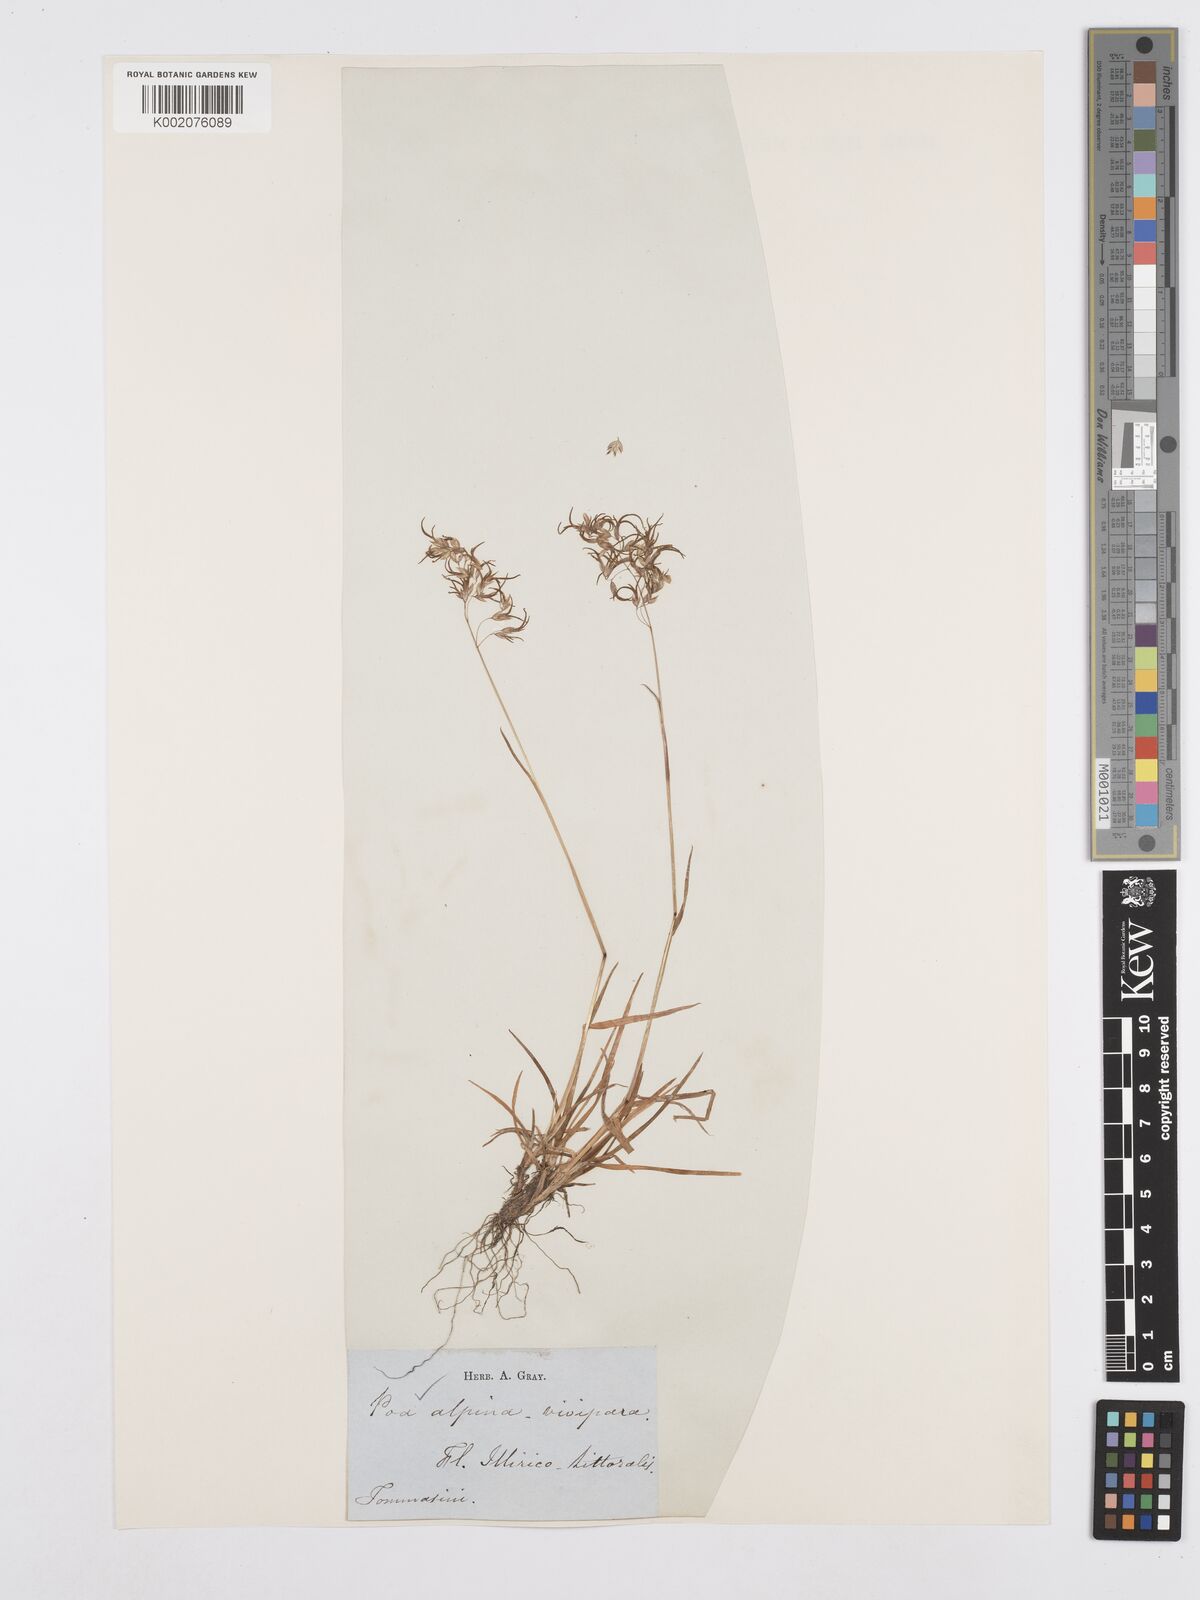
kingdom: Plantae
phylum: Tracheophyta
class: Liliopsida
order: Poales
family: Poaceae
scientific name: Poaceae
